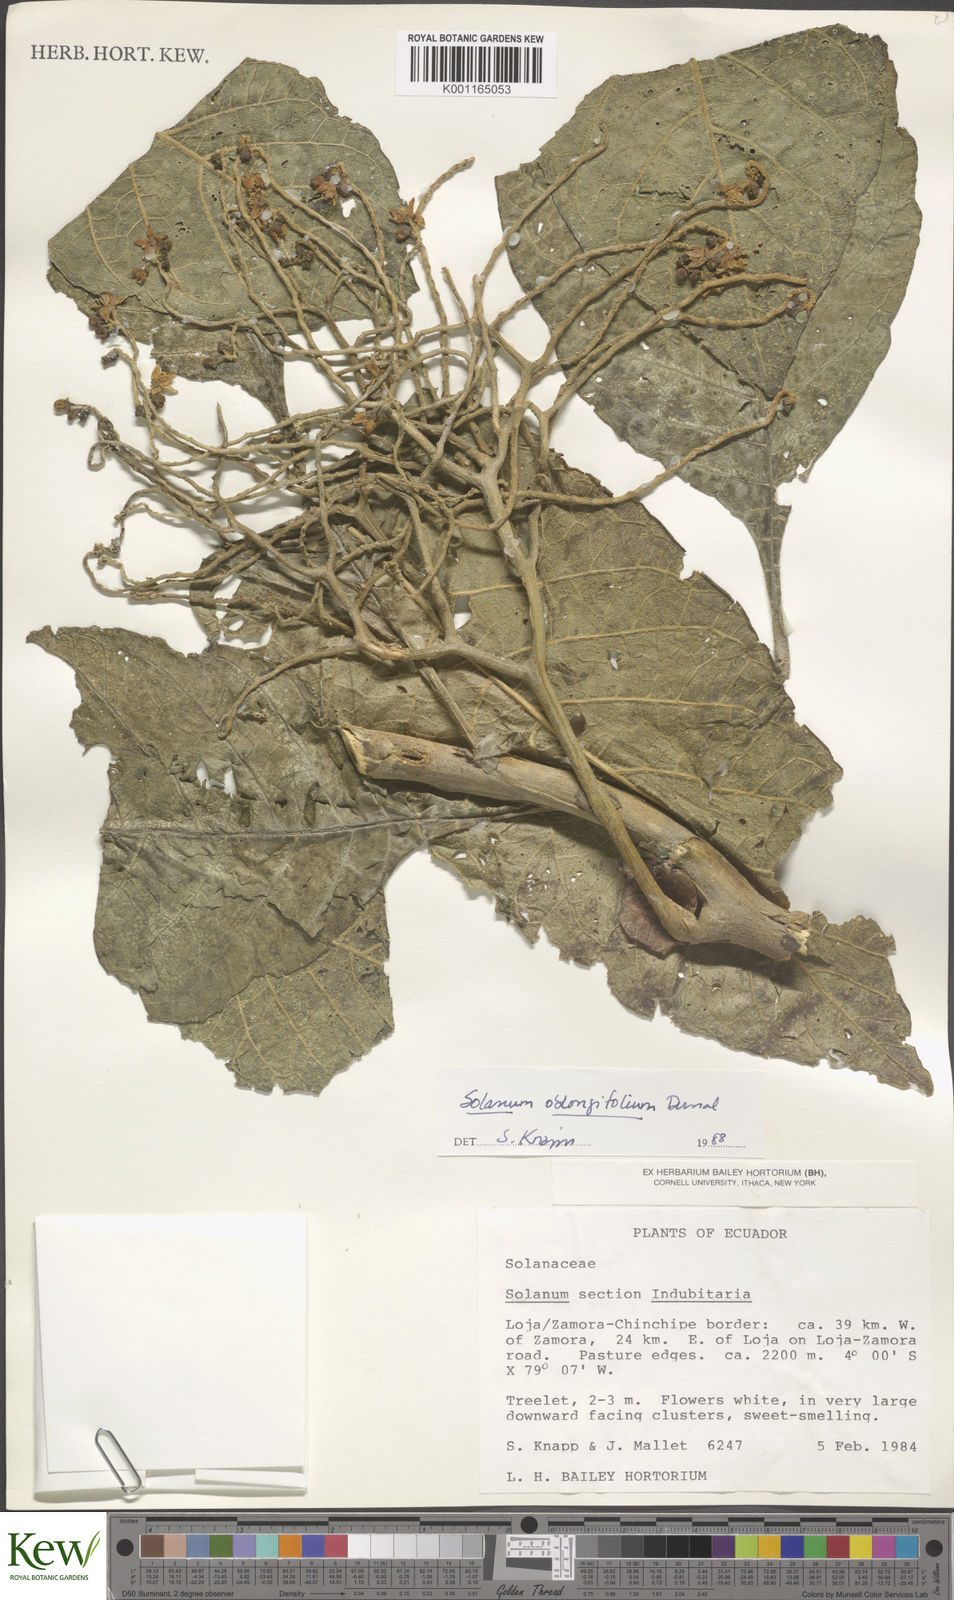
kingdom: Plantae
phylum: Tracheophyta
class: Magnoliopsida
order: Solanales
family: Solanaceae
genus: Solanum
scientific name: Solanum oblongifolium
